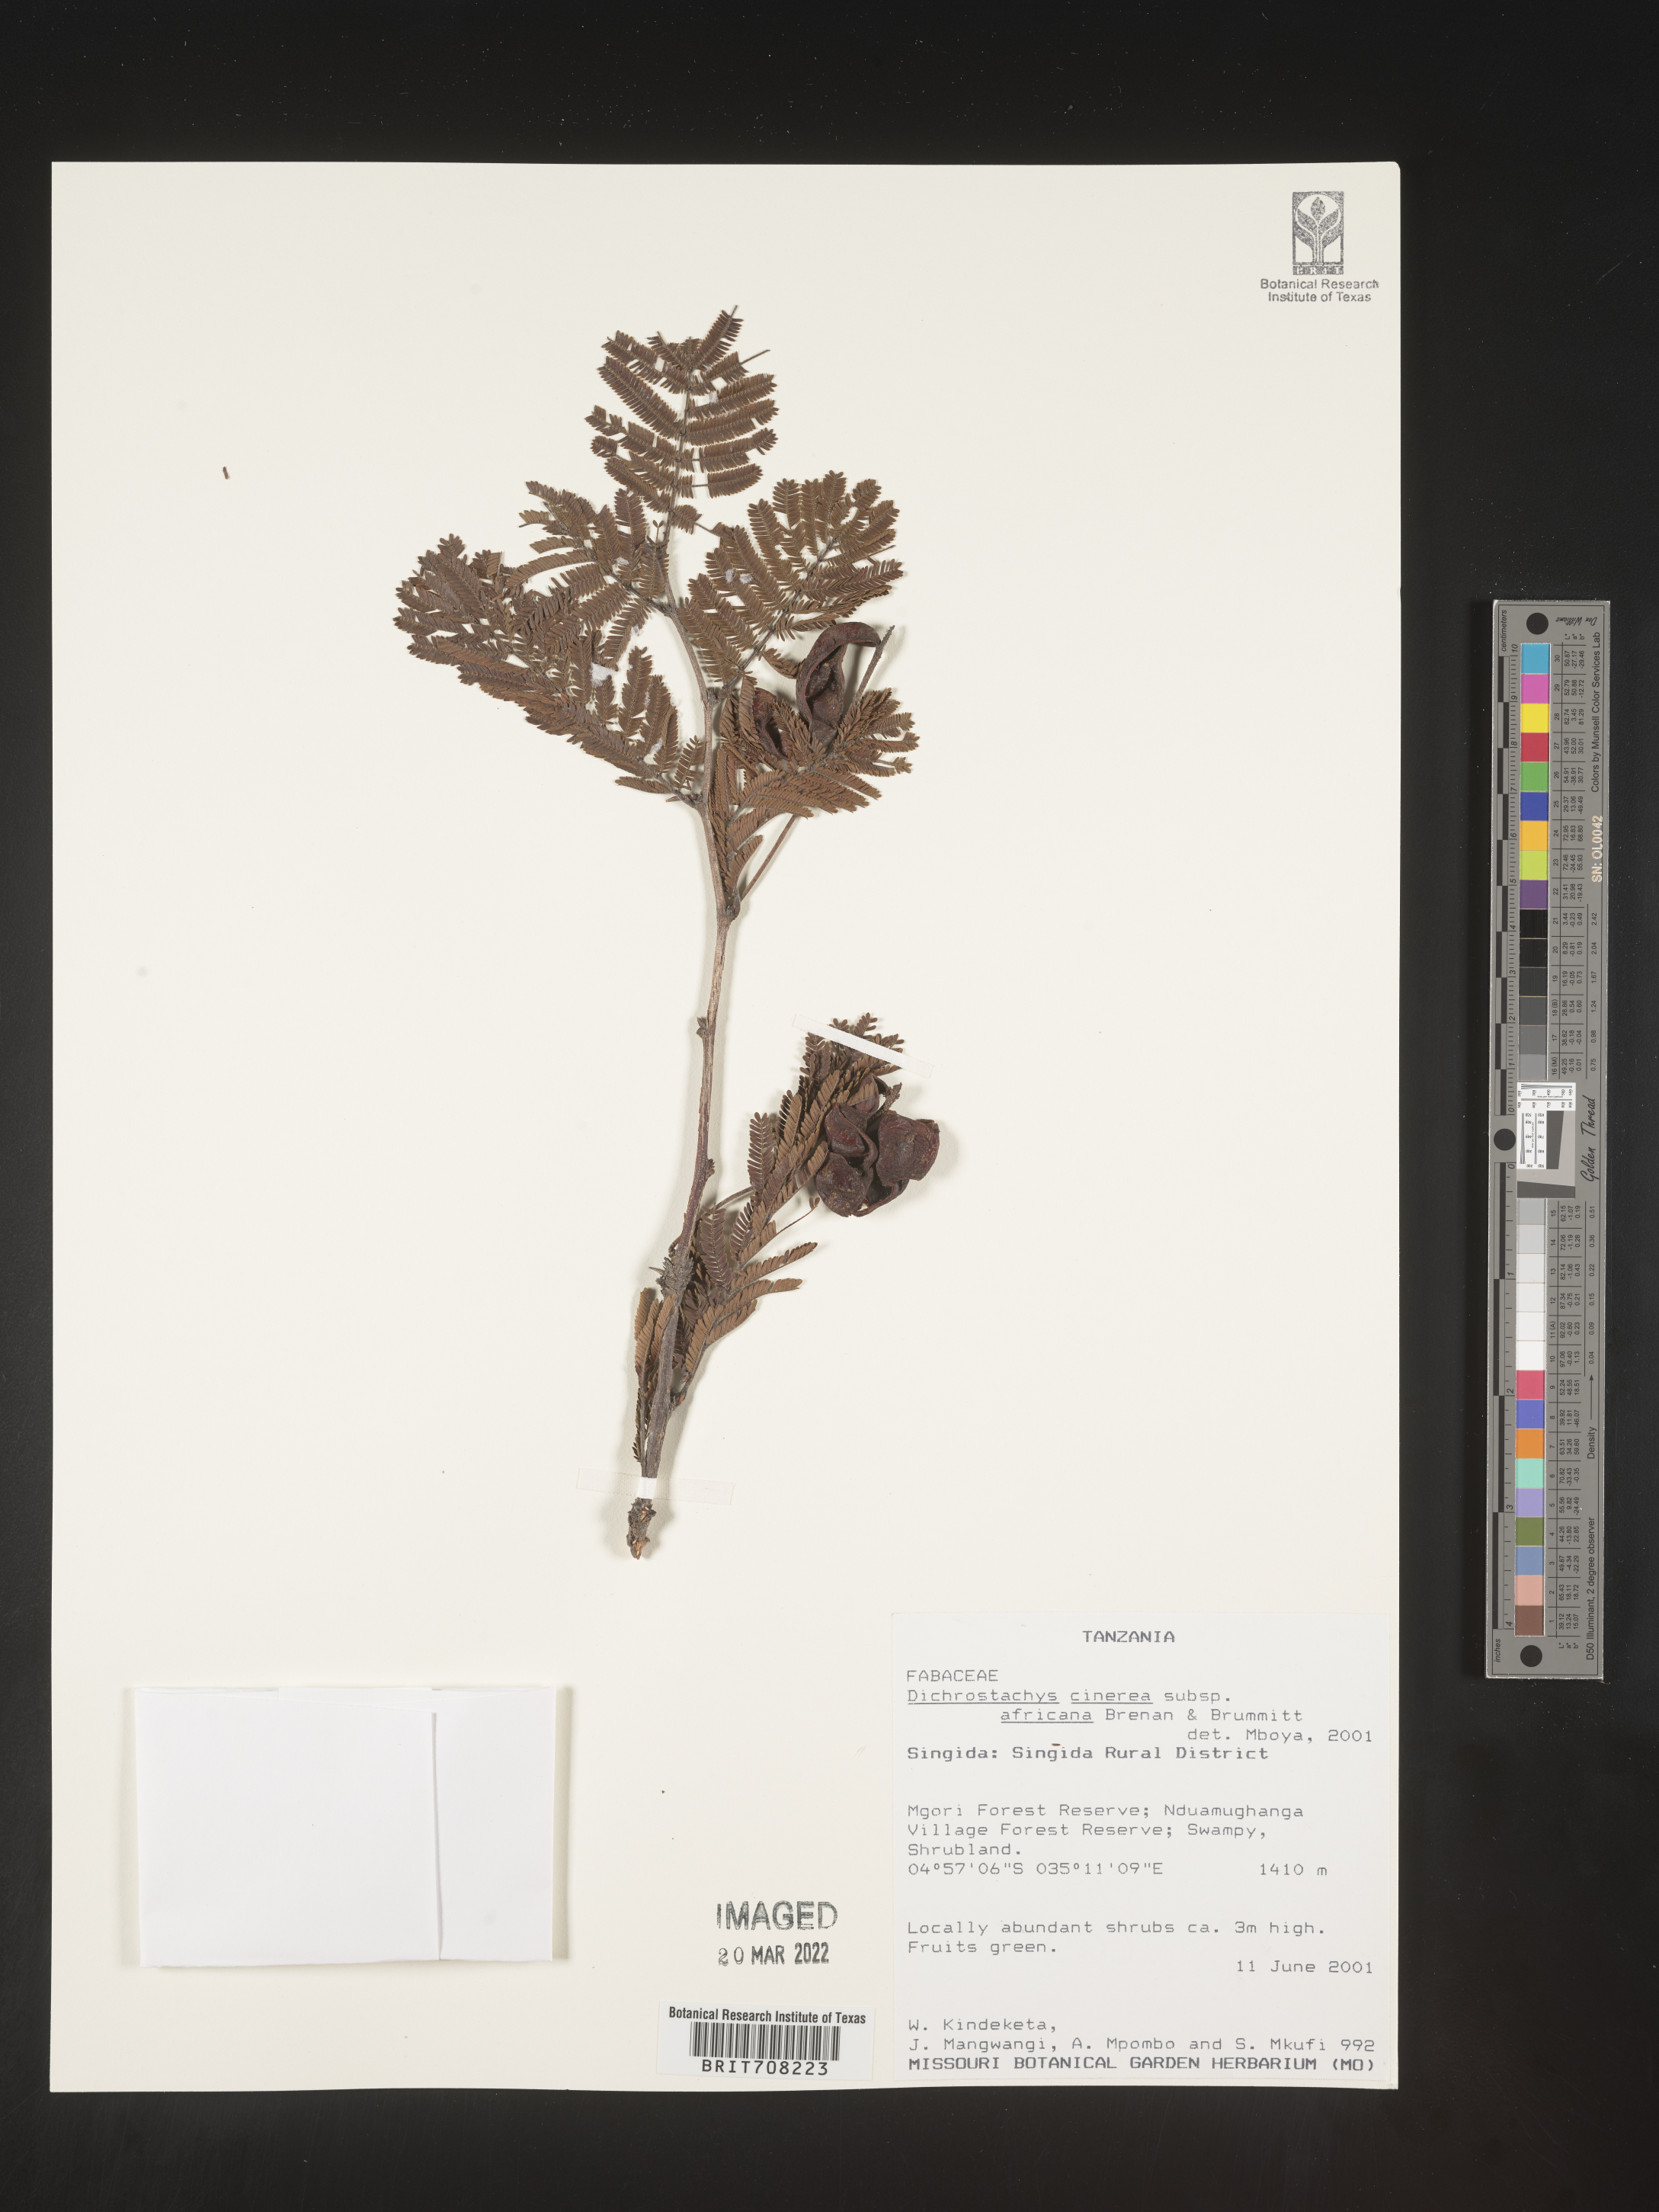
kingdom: Plantae
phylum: Tracheophyta
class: Magnoliopsida
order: Fabales
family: Fabaceae
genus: Dichrostachys
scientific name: Dichrostachys
